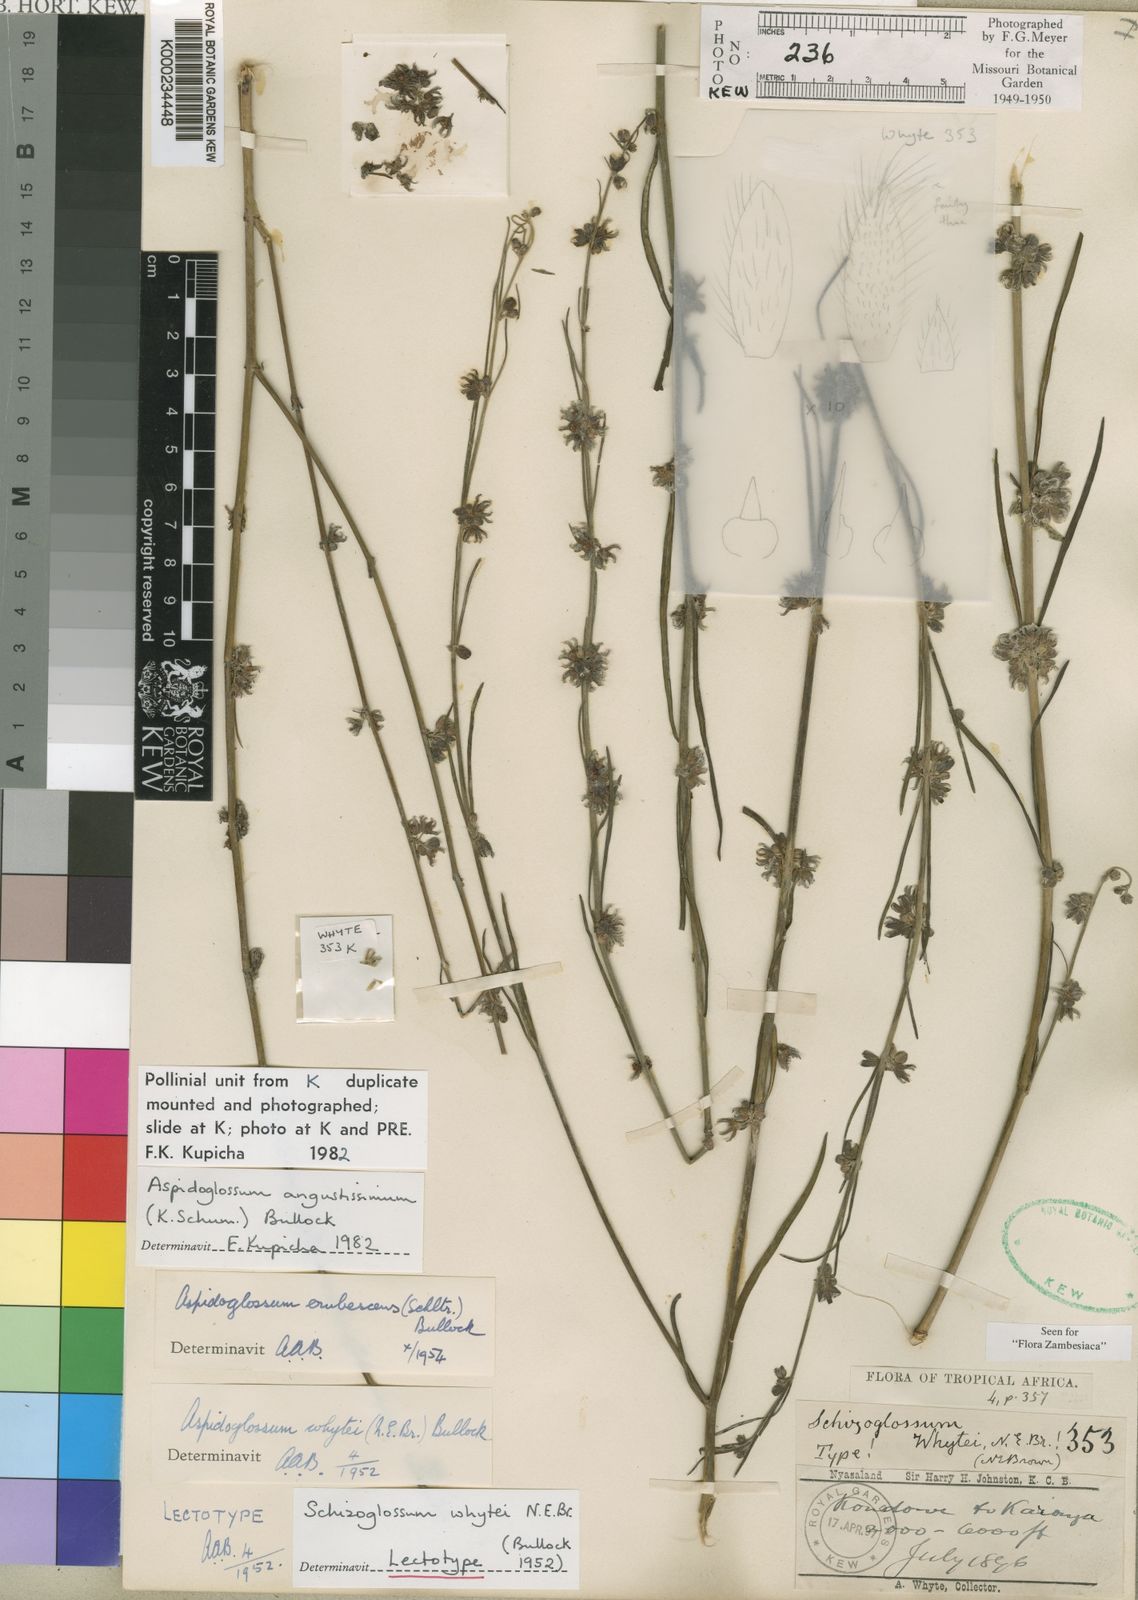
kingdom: Plantae
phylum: Tracheophyta
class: Magnoliopsida
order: Gentianales
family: Apocynaceae
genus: Aspidoglossum
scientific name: Aspidoglossum angustissimum
